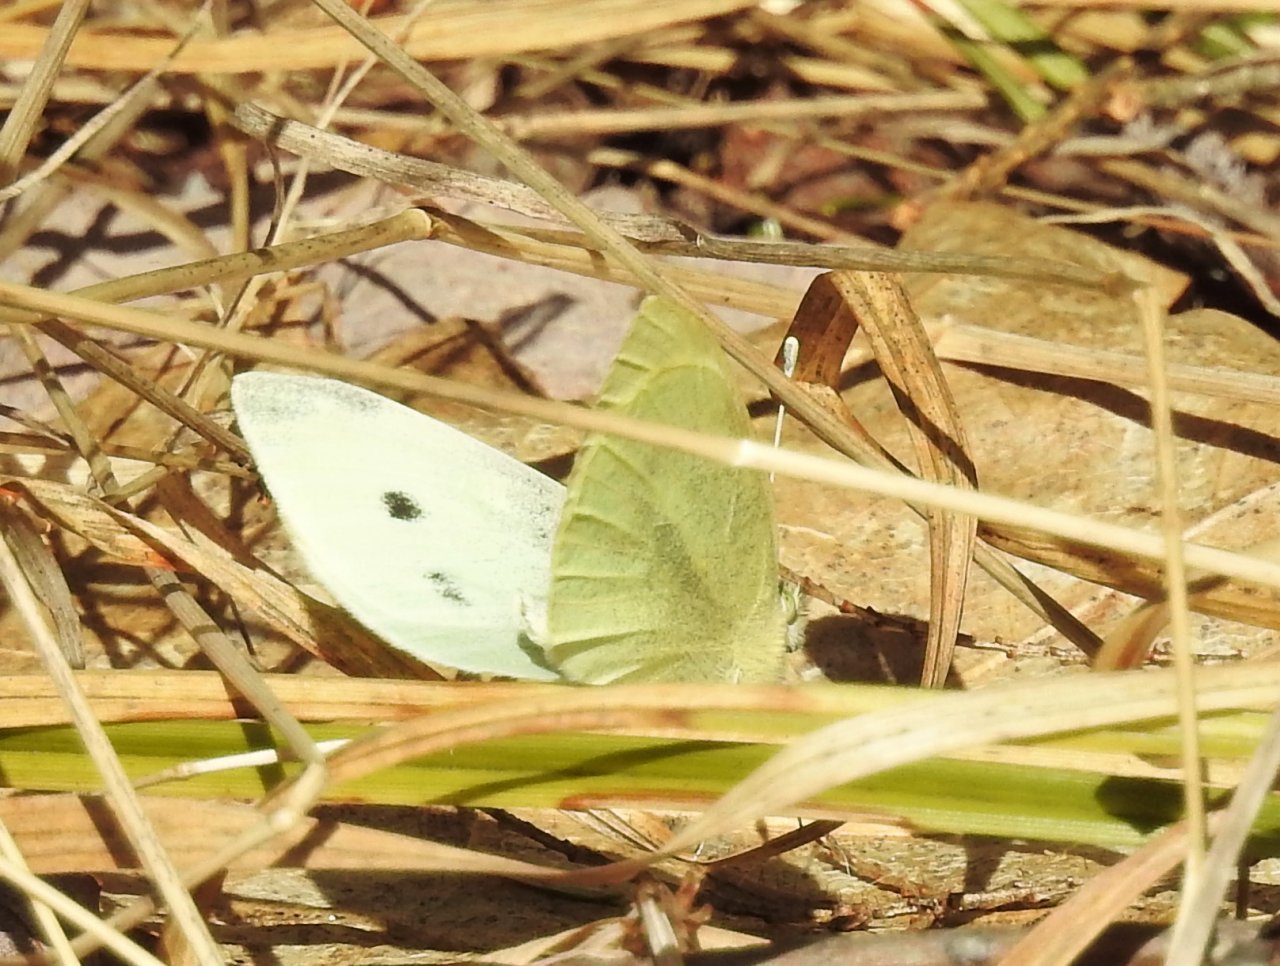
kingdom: Animalia
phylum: Arthropoda
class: Insecta
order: Lepidoptera
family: Pieridae
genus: Pieris
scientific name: Pieris rapae
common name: Cabbage White
